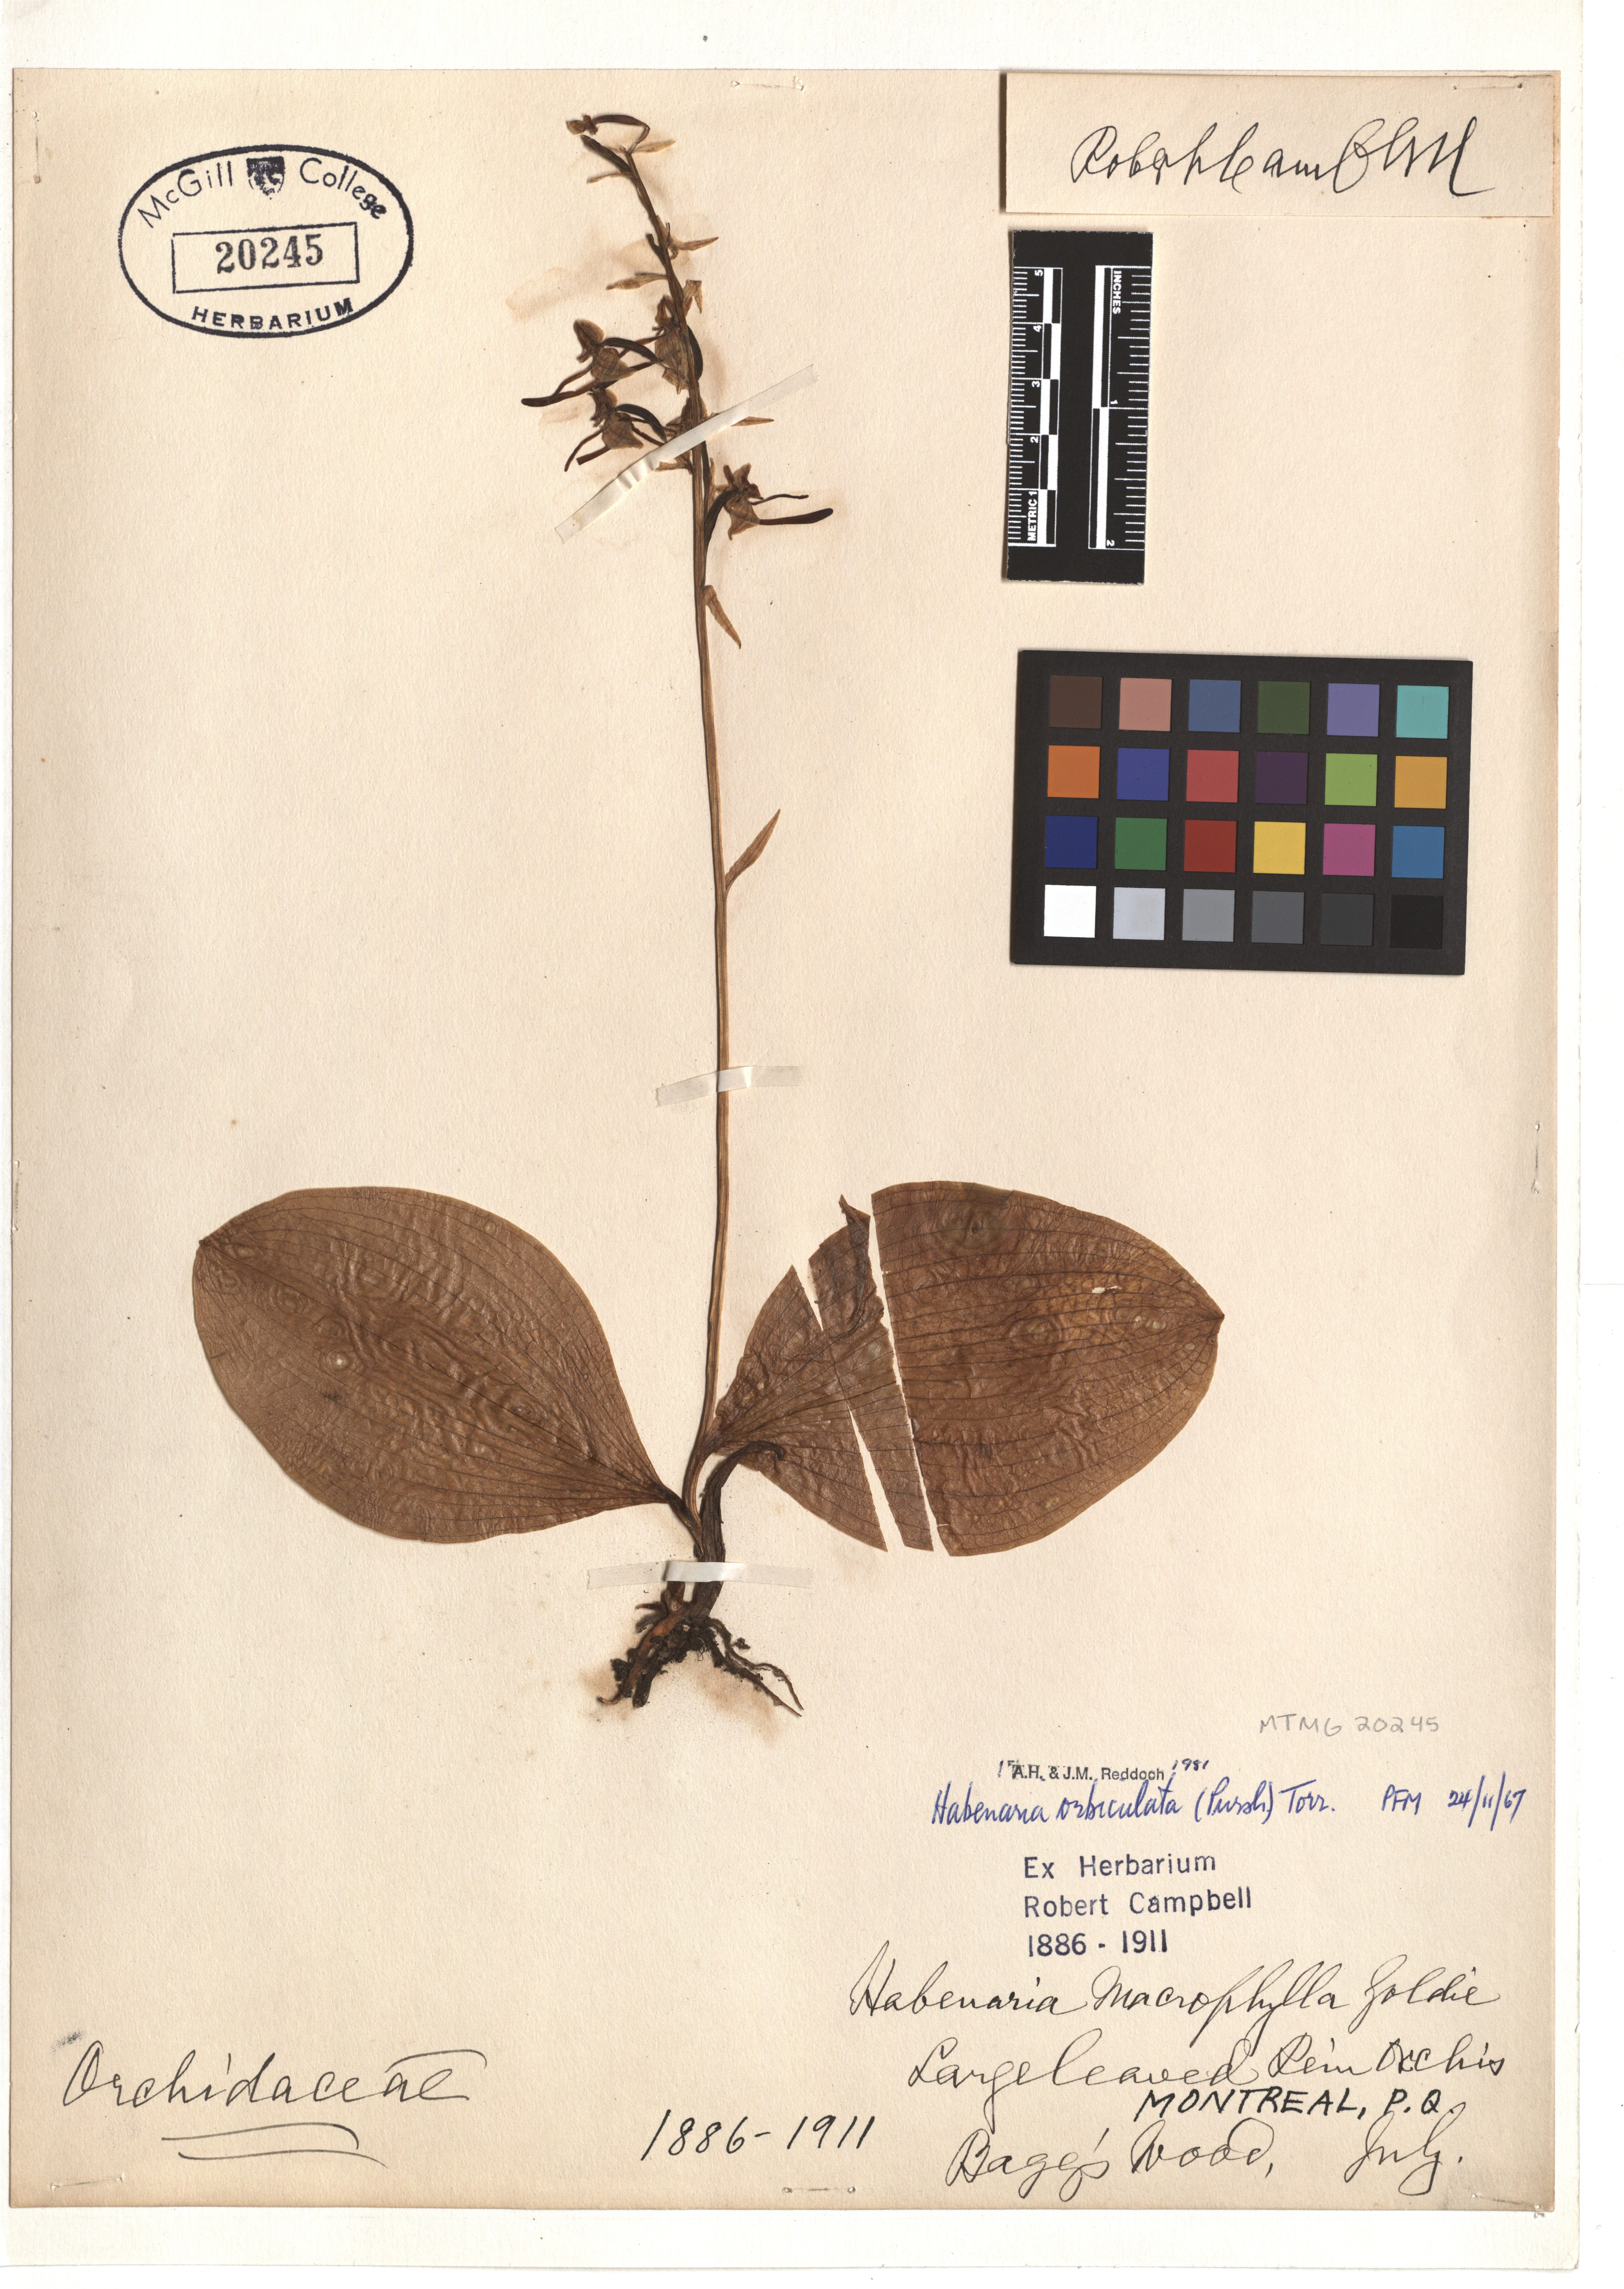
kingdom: Plantae
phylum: Tracheophyta
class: Liliopsida
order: Asparagales
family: Orchidaceae
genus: Platanthera
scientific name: Platanthera orbiculata
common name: Large round-leaved orchid
